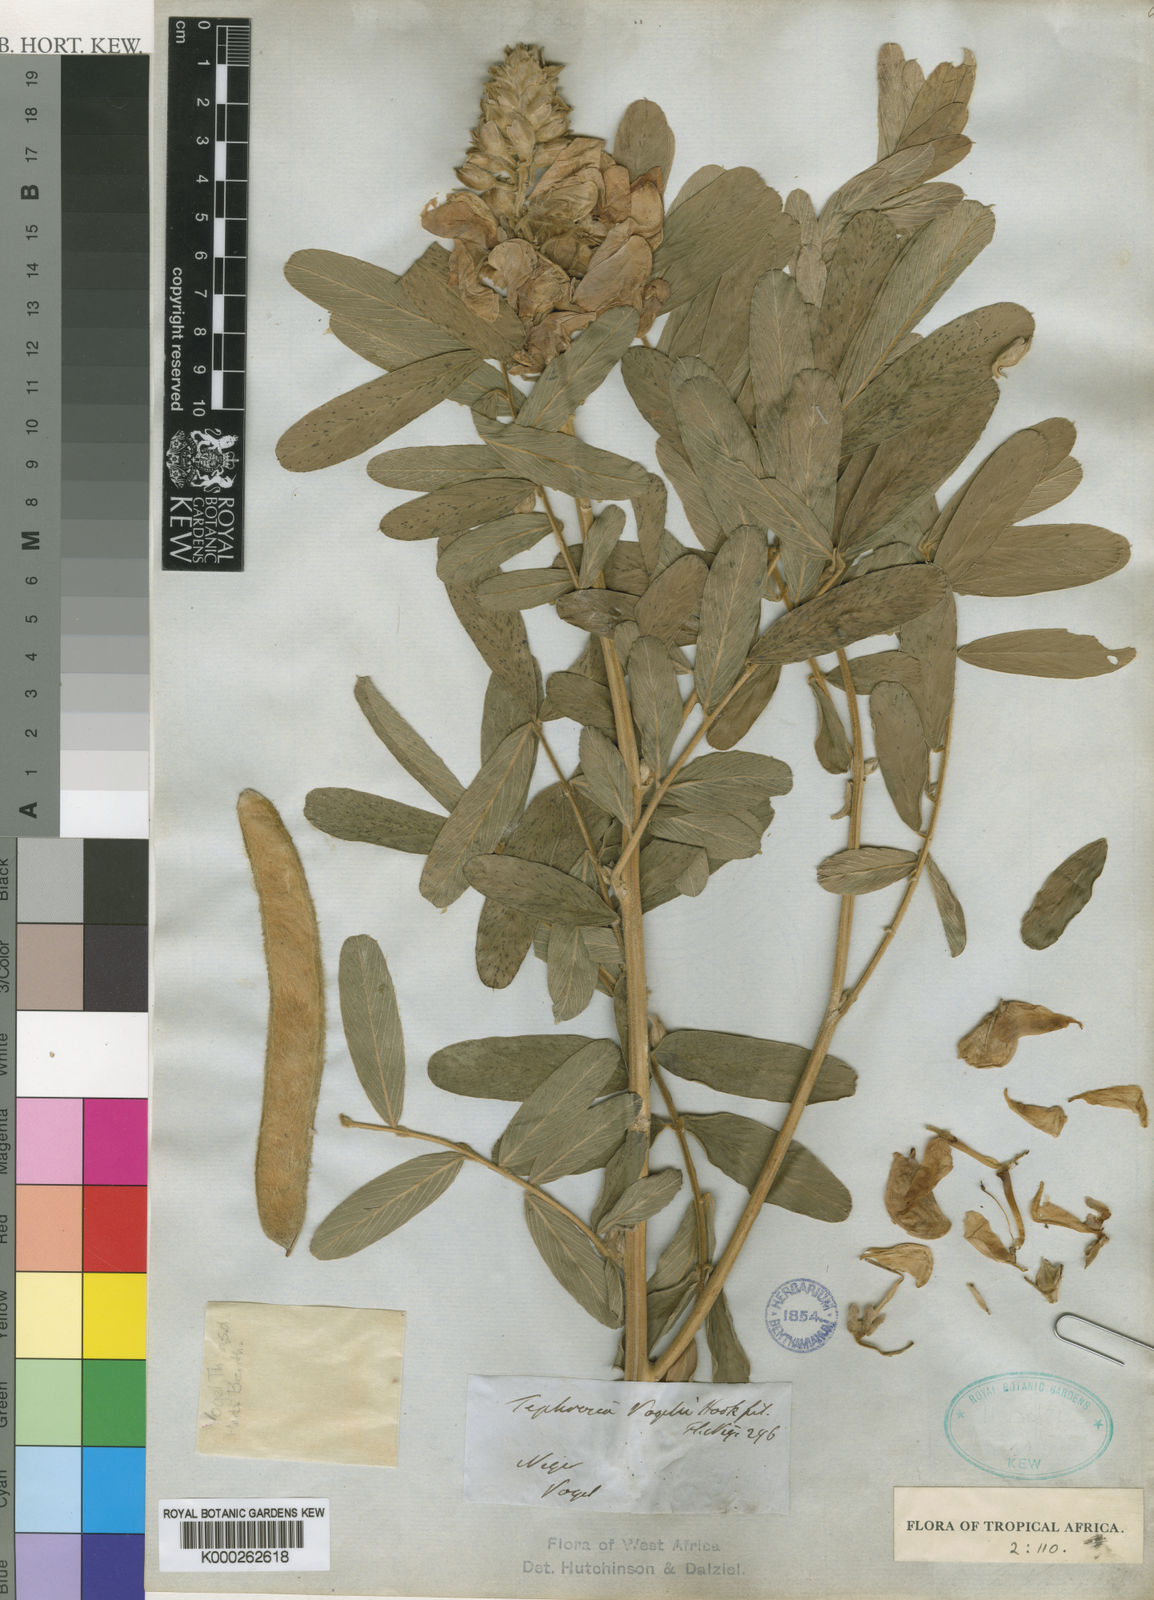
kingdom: Plantae
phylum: Tracheophyta
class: Magnoliopsida
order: Fabales
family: Fabaceae
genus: Tephrosia
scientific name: Tephrosia vogelii
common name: Vogel tephrosia
